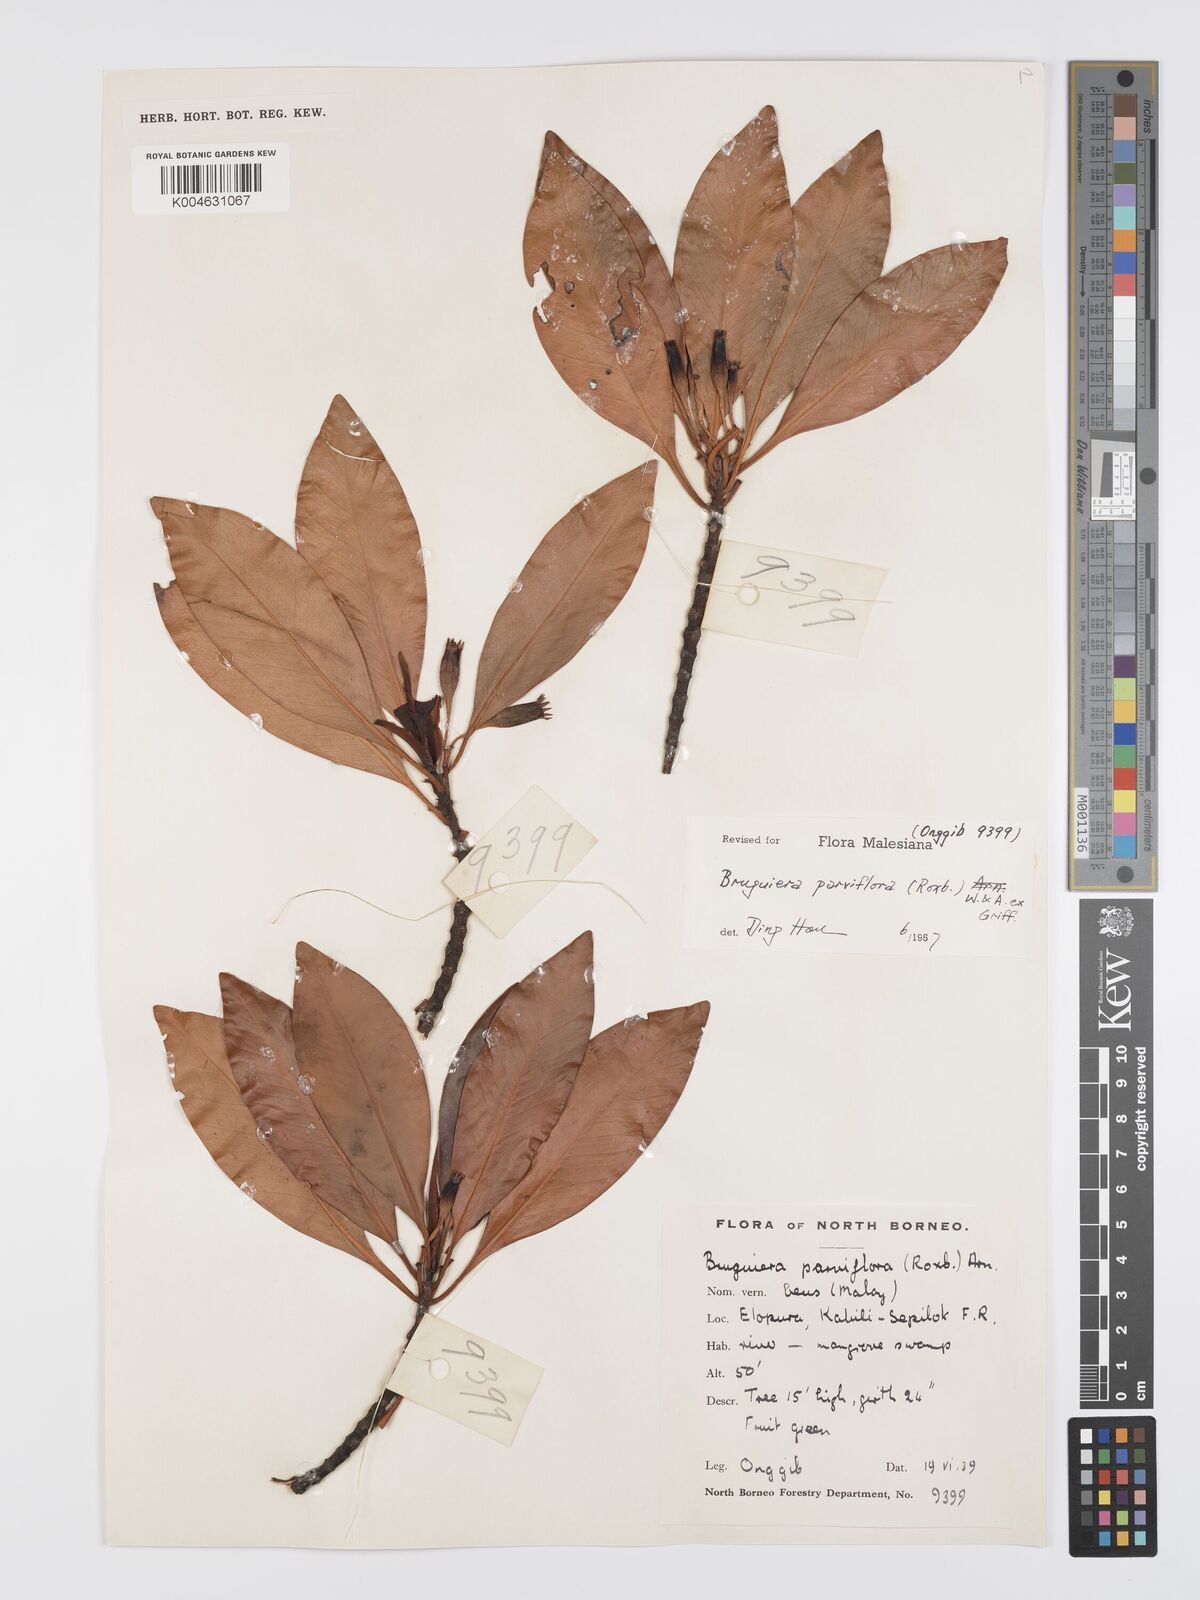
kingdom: Plantae
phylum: Tracheophyta
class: Magnoliopsida
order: Malpighiales
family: Rhizophoraceae
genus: Bruguiera
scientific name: Bruguiera parviflora
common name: Smallflower bruguiera
